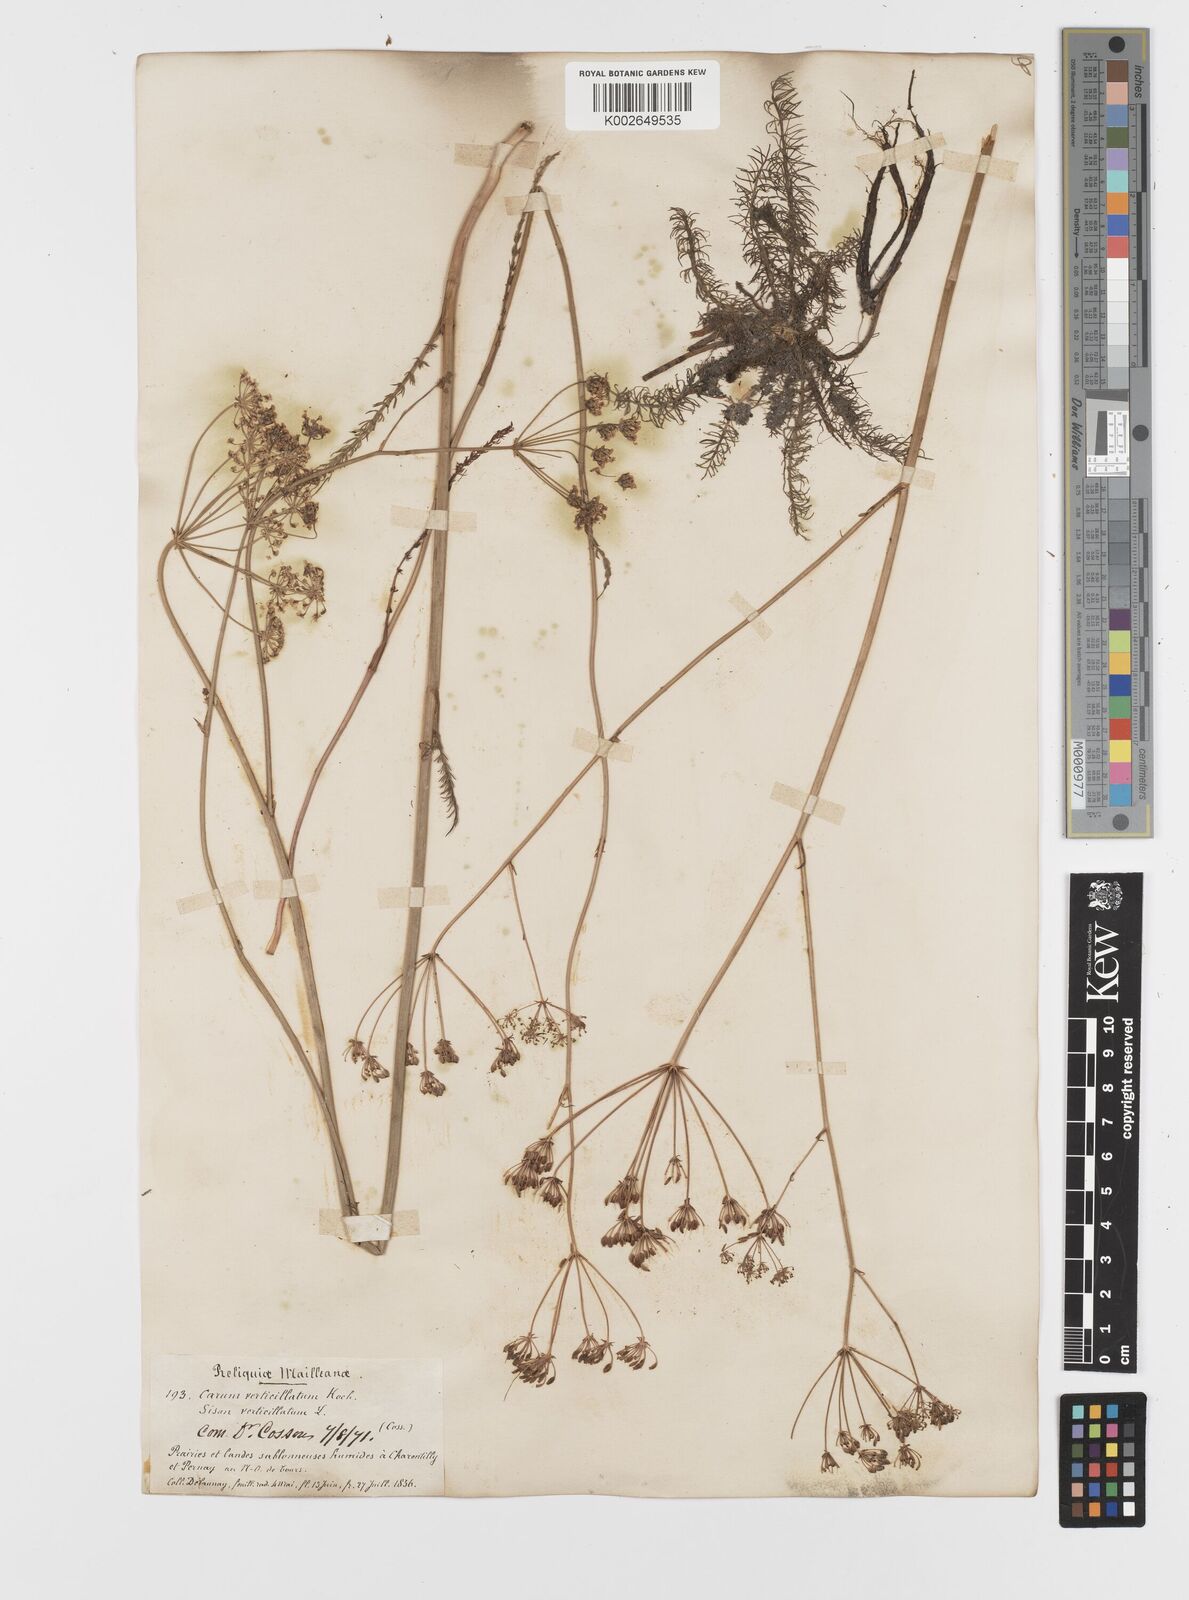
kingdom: Plantae
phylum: Tracheophyta
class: Magnoliopsida
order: Apiales
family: Apiaceae
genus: Trocdaris
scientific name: Trocdaris verticillatum
